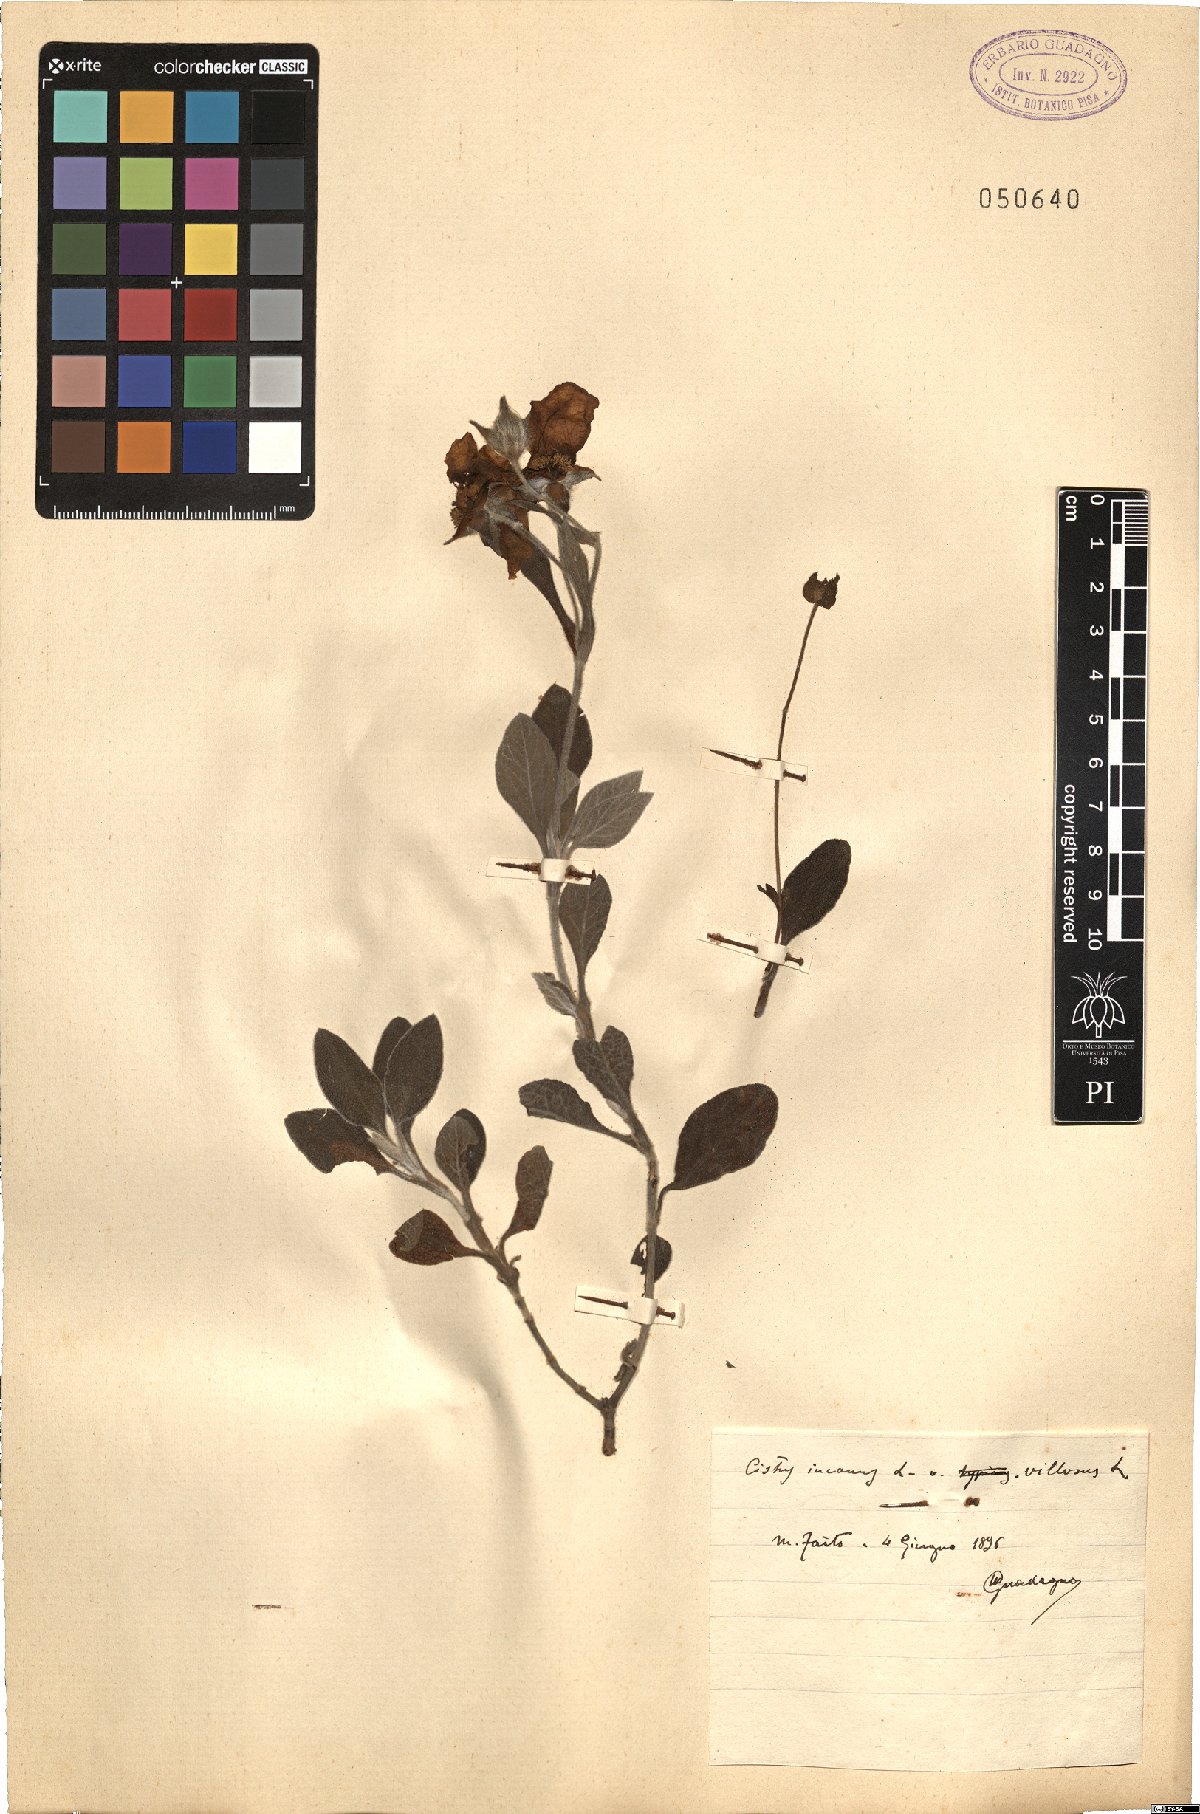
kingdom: Plantae
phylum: Tracheophyta
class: Magnoliopsida
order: Malvales
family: Cistaceae
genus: Cistus
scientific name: Cistus incanus
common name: Hairy rockrose
